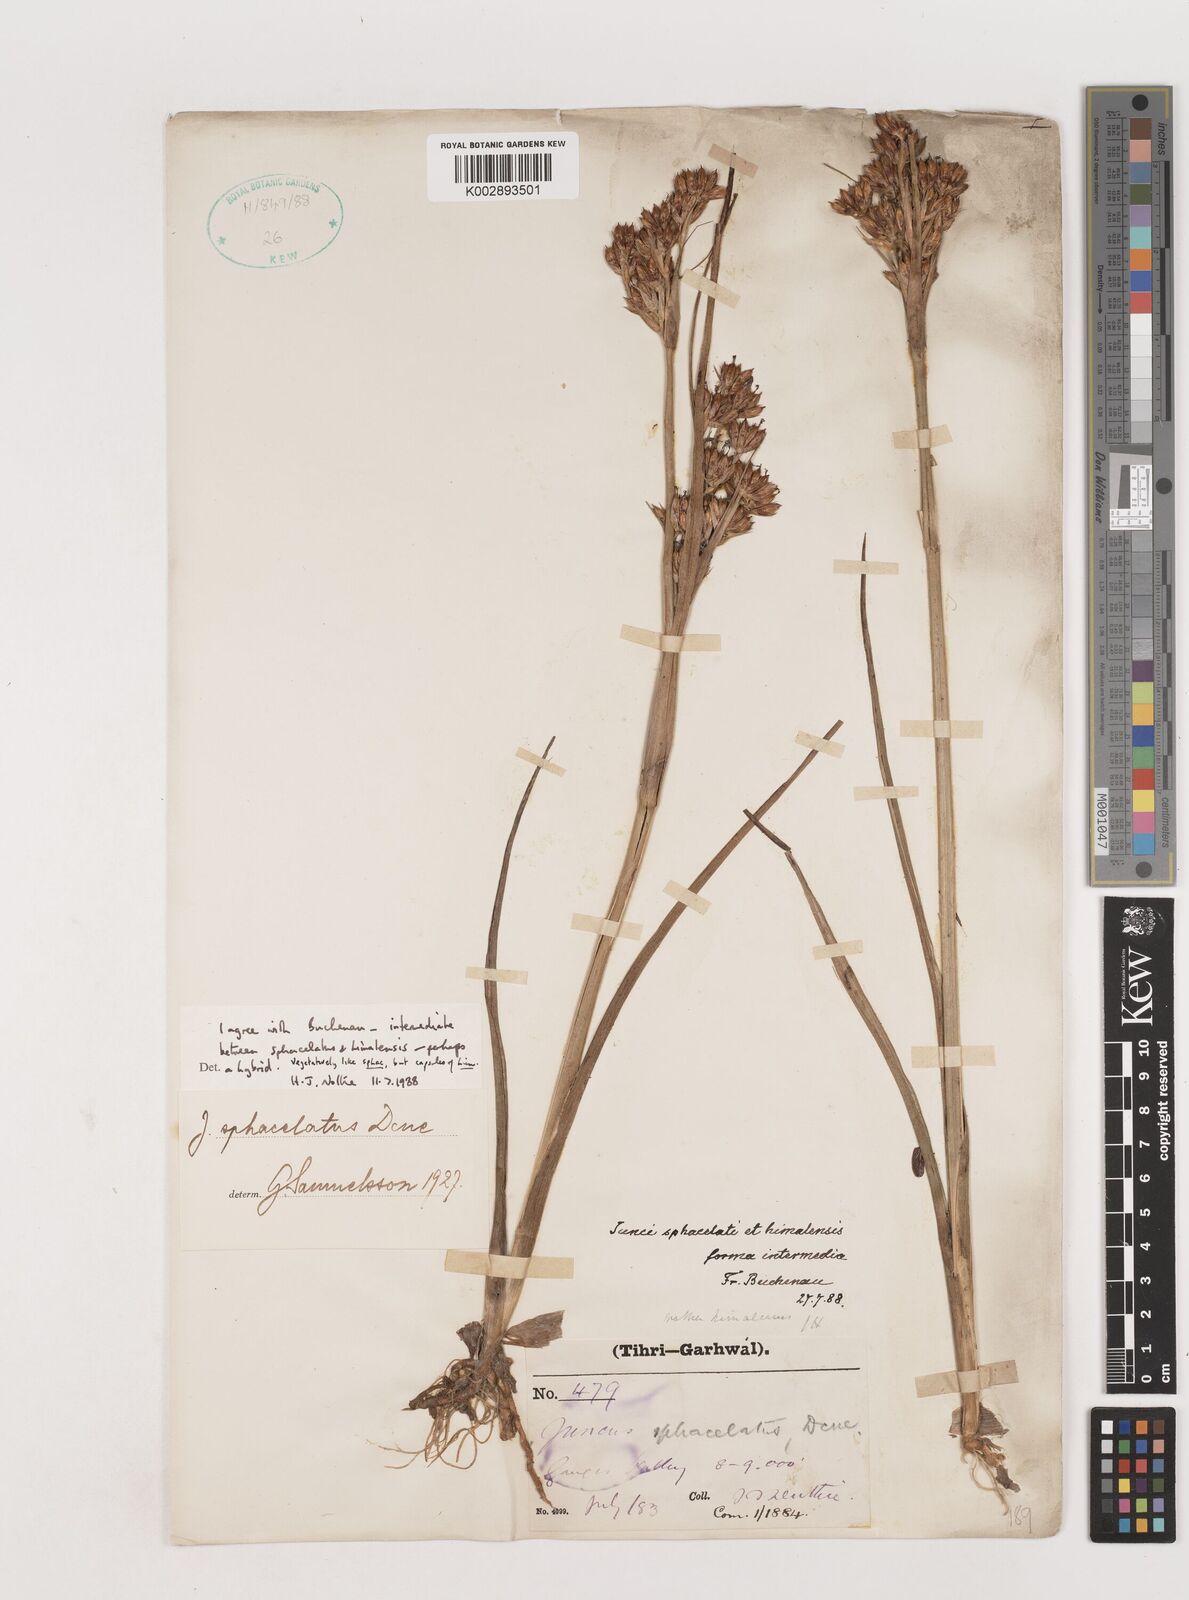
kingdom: Plantae
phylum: Tracheophyta
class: Liliopsida
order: Poales
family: Juncaceae
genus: Juncus
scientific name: Juncus sphacelatus
